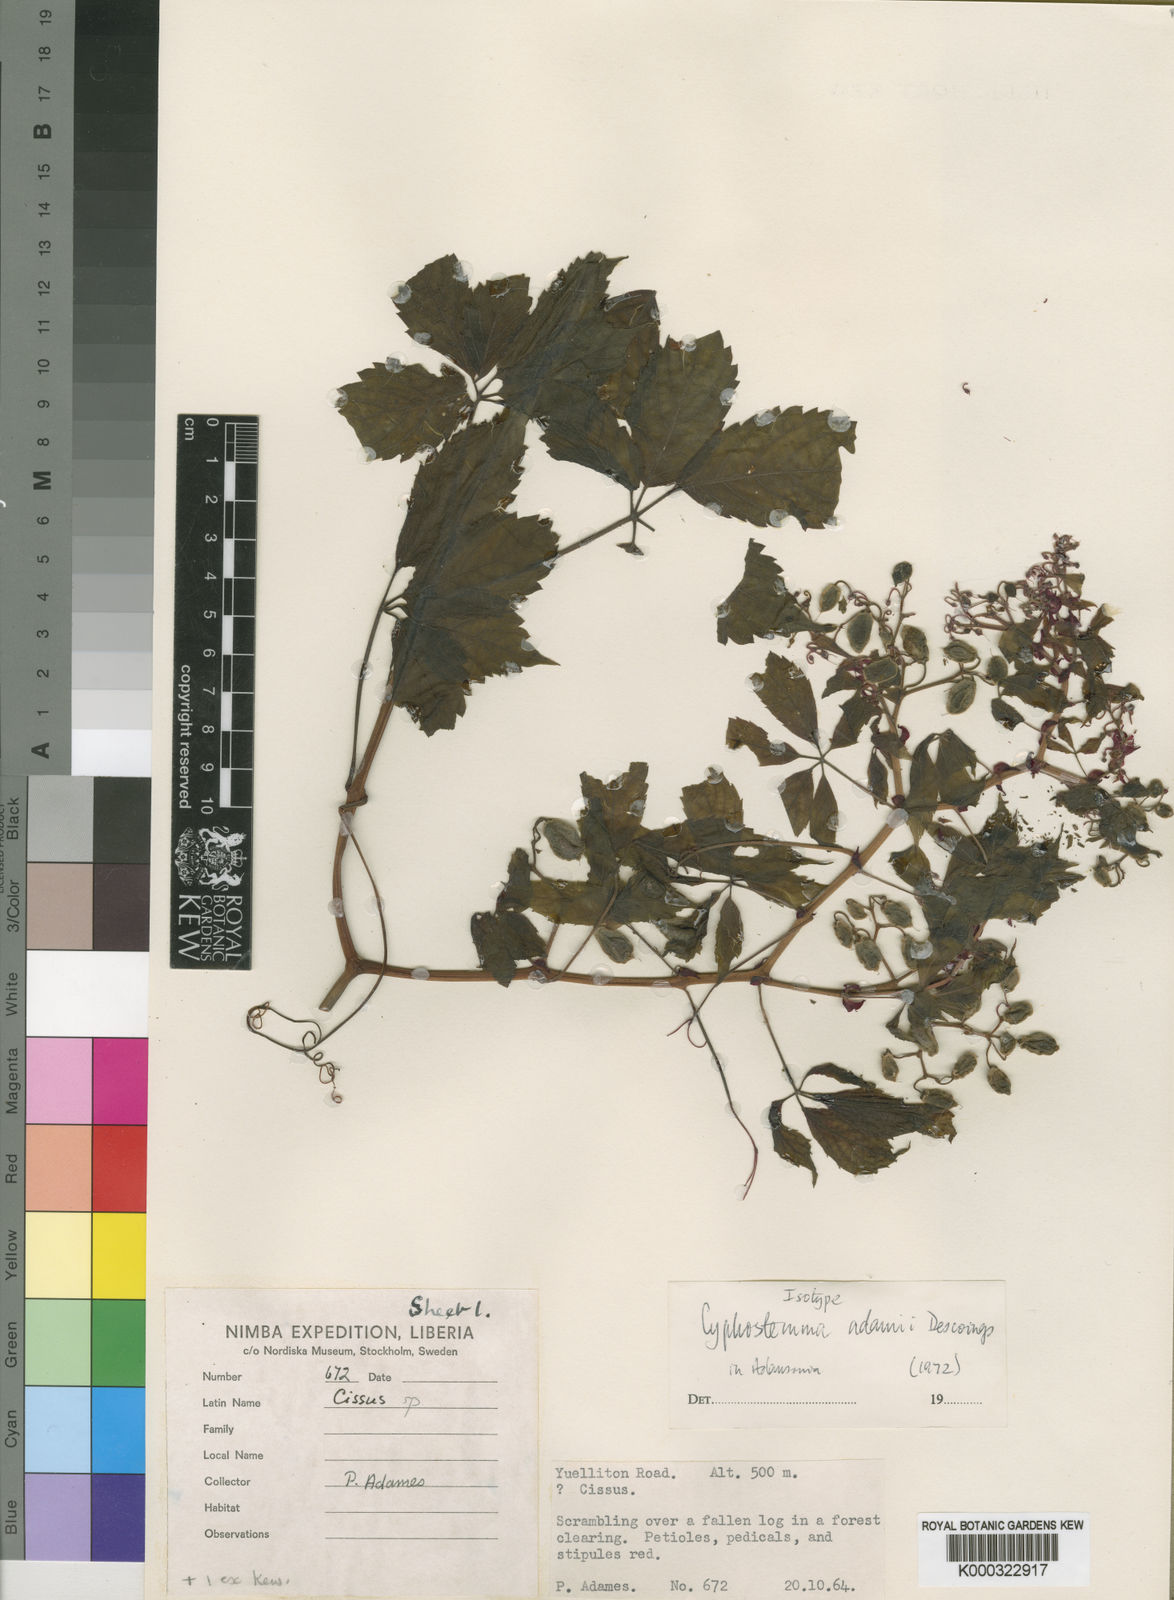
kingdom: Plantae
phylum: Tracheophyta
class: Magnoliopsida
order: Vitales
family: Vitaceae
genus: Cyphostemma
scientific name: Cyphostemma adamii
